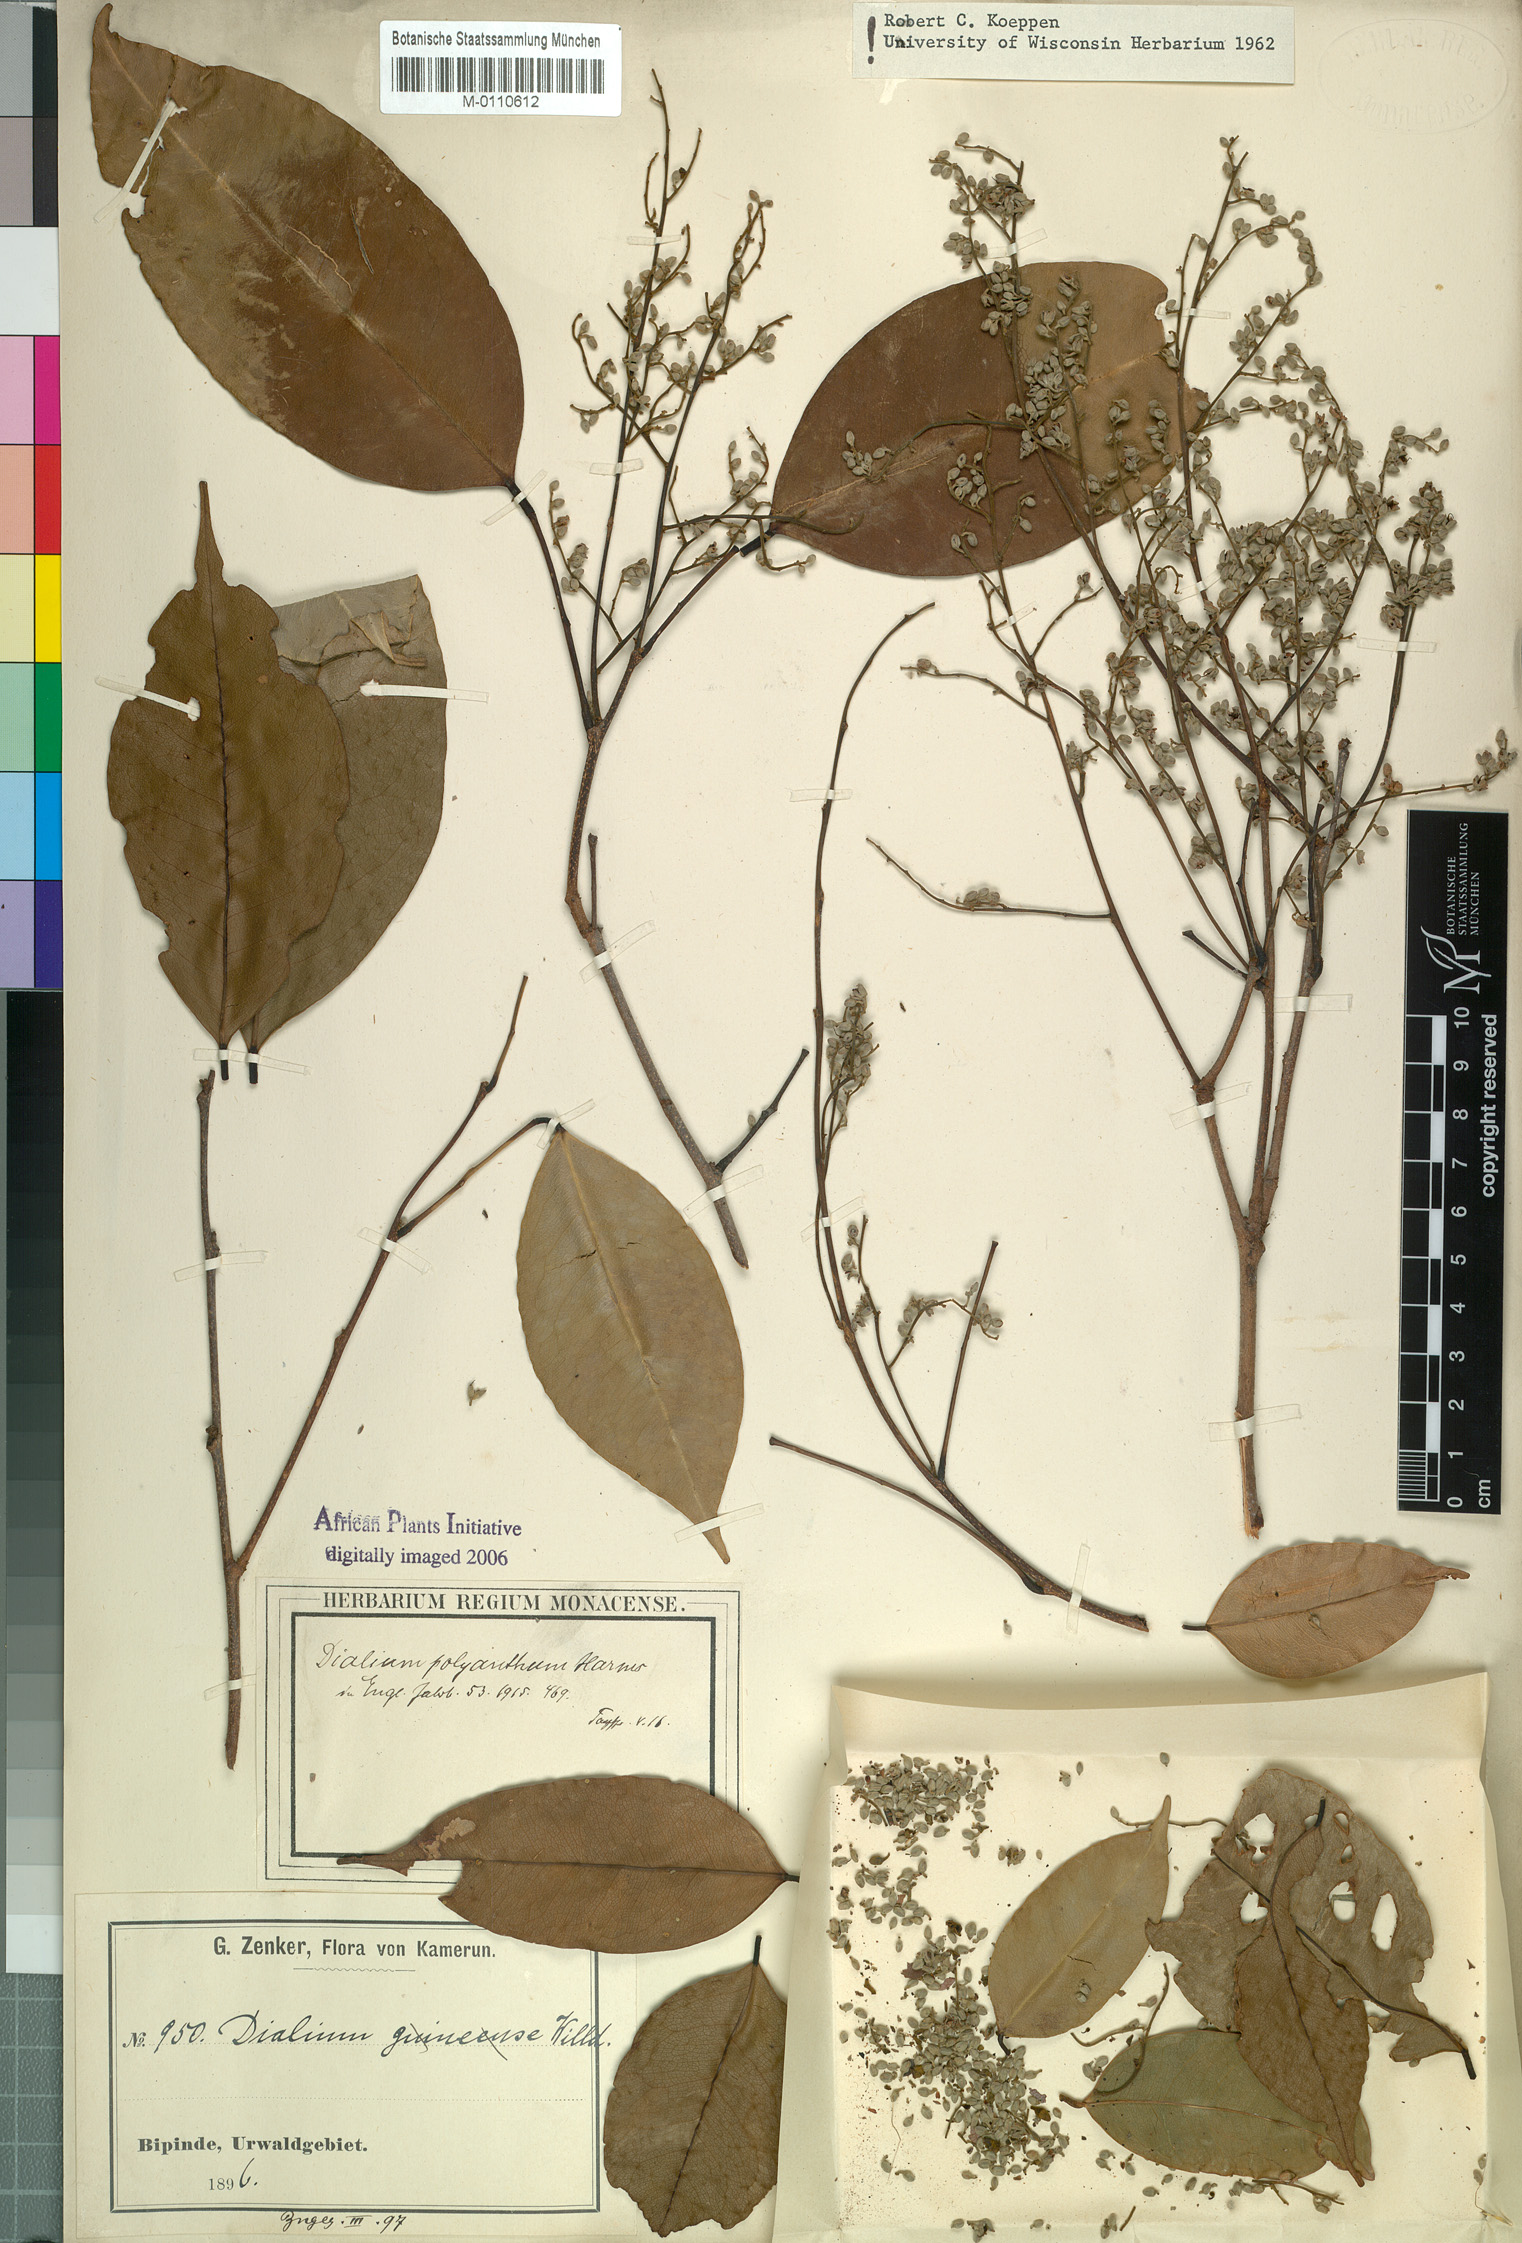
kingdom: Plantae
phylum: Tracheophyta
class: Magnoliopsida
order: Fabales
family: Fabaceae
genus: Dialium
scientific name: Dialium polyanthum
